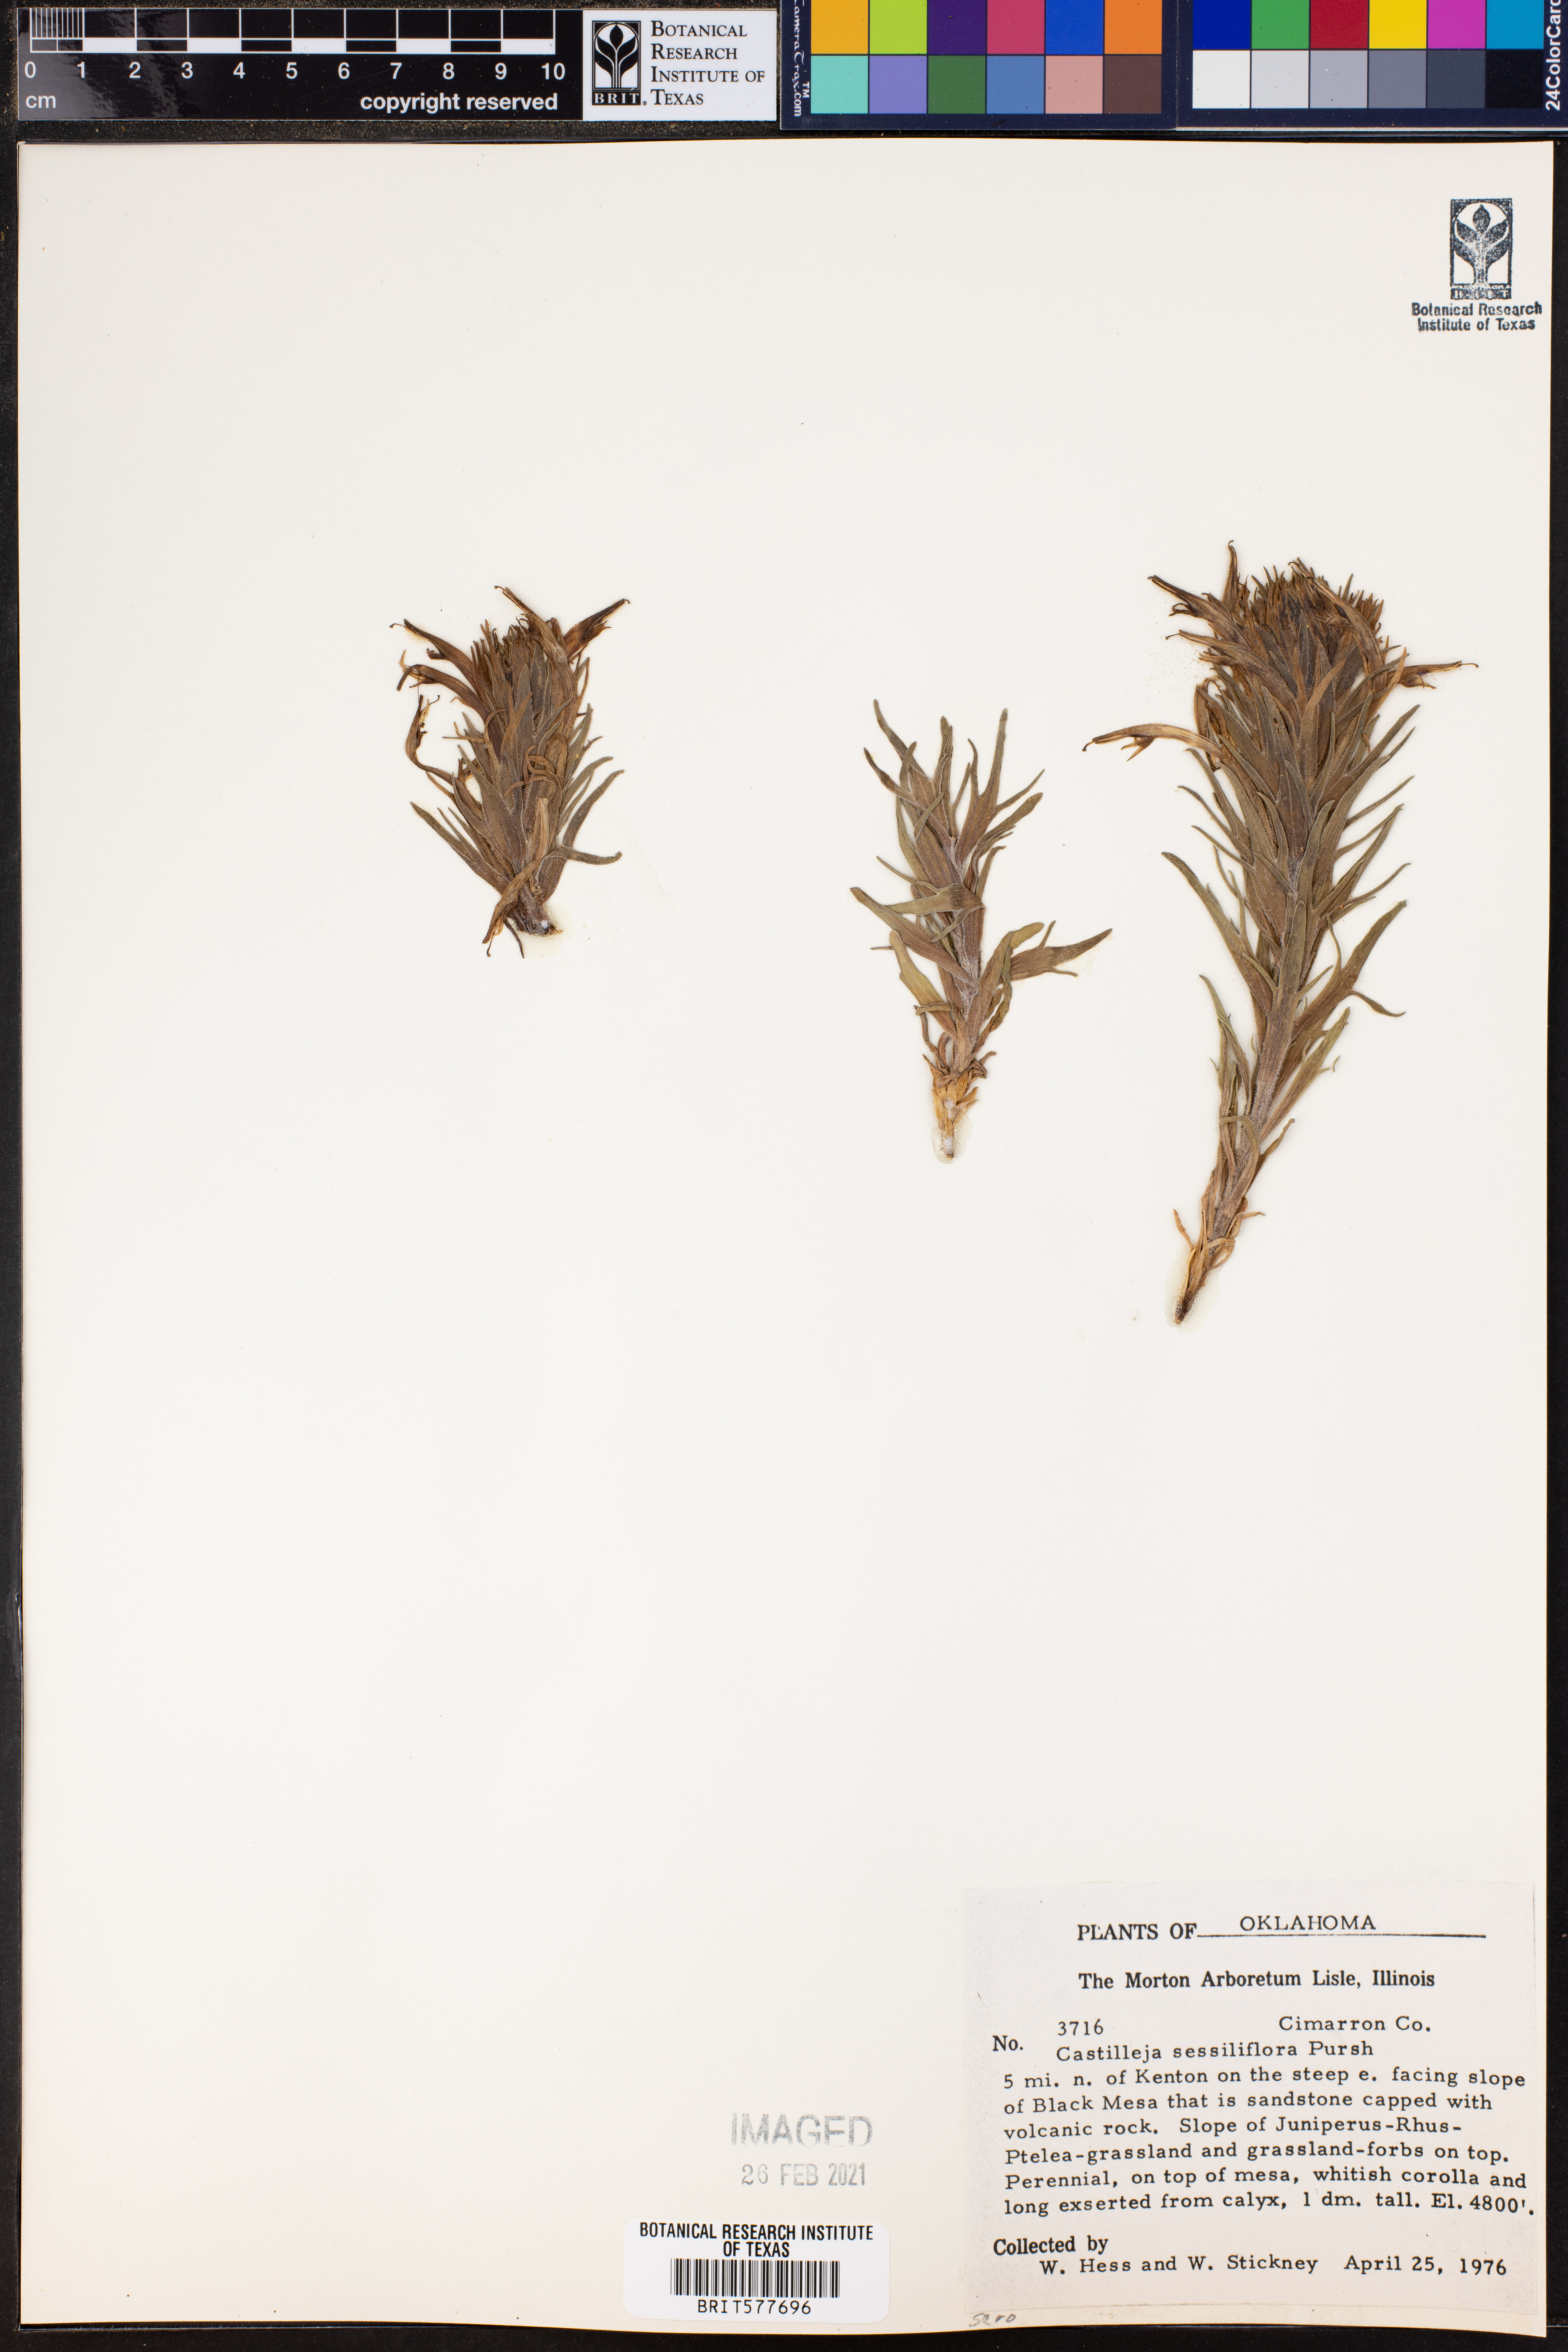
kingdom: Plantae
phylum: Tracheophyta
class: Magnoliopsida
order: Lamiales
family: Orobanchaceae
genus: Castilleja
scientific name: Castilleja sessiliflora
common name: Downy paintbrush
